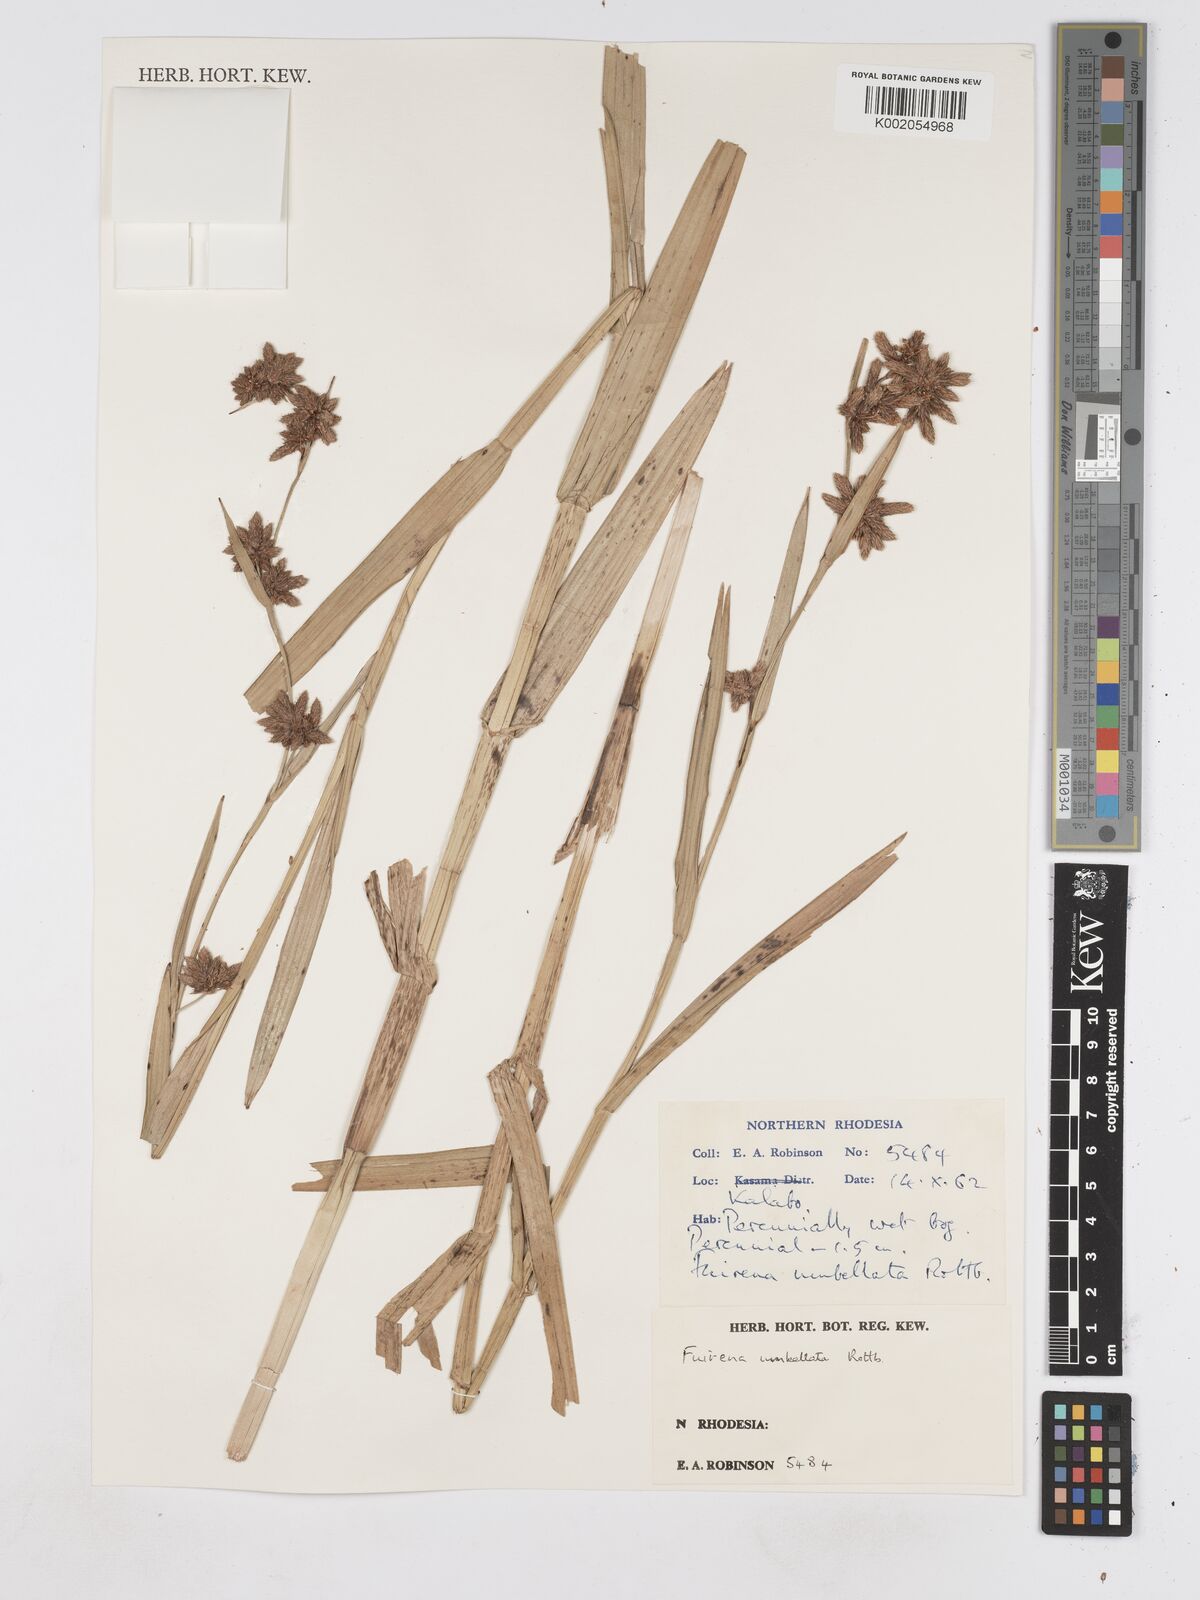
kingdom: Plantae
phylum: Tracheophyta
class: Liliopsida
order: Poales
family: Cyperaceae
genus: Fuirena
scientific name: Fuirena umbellata
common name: Yefen
